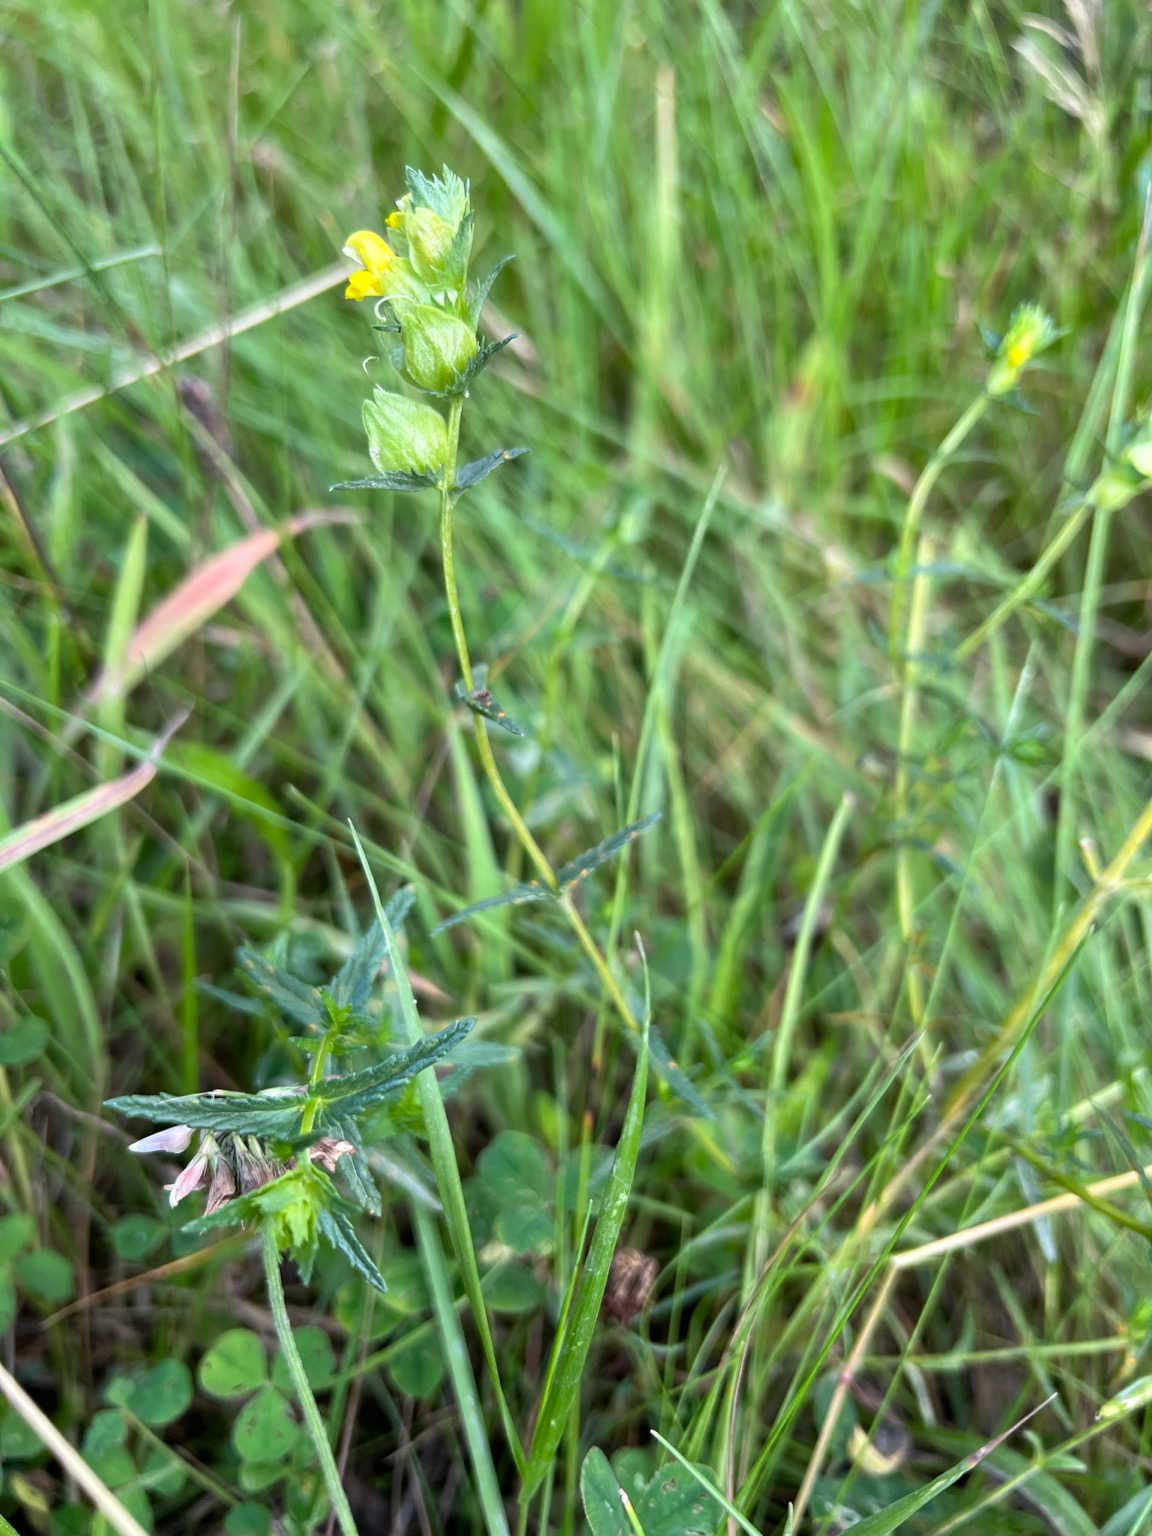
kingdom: Plantae
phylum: Tracheophyta
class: Magnoliopsida
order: Lamiales
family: Orobanchaceae
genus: Rhinanthus
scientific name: Rhinanthus minor
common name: Liden skjaller
